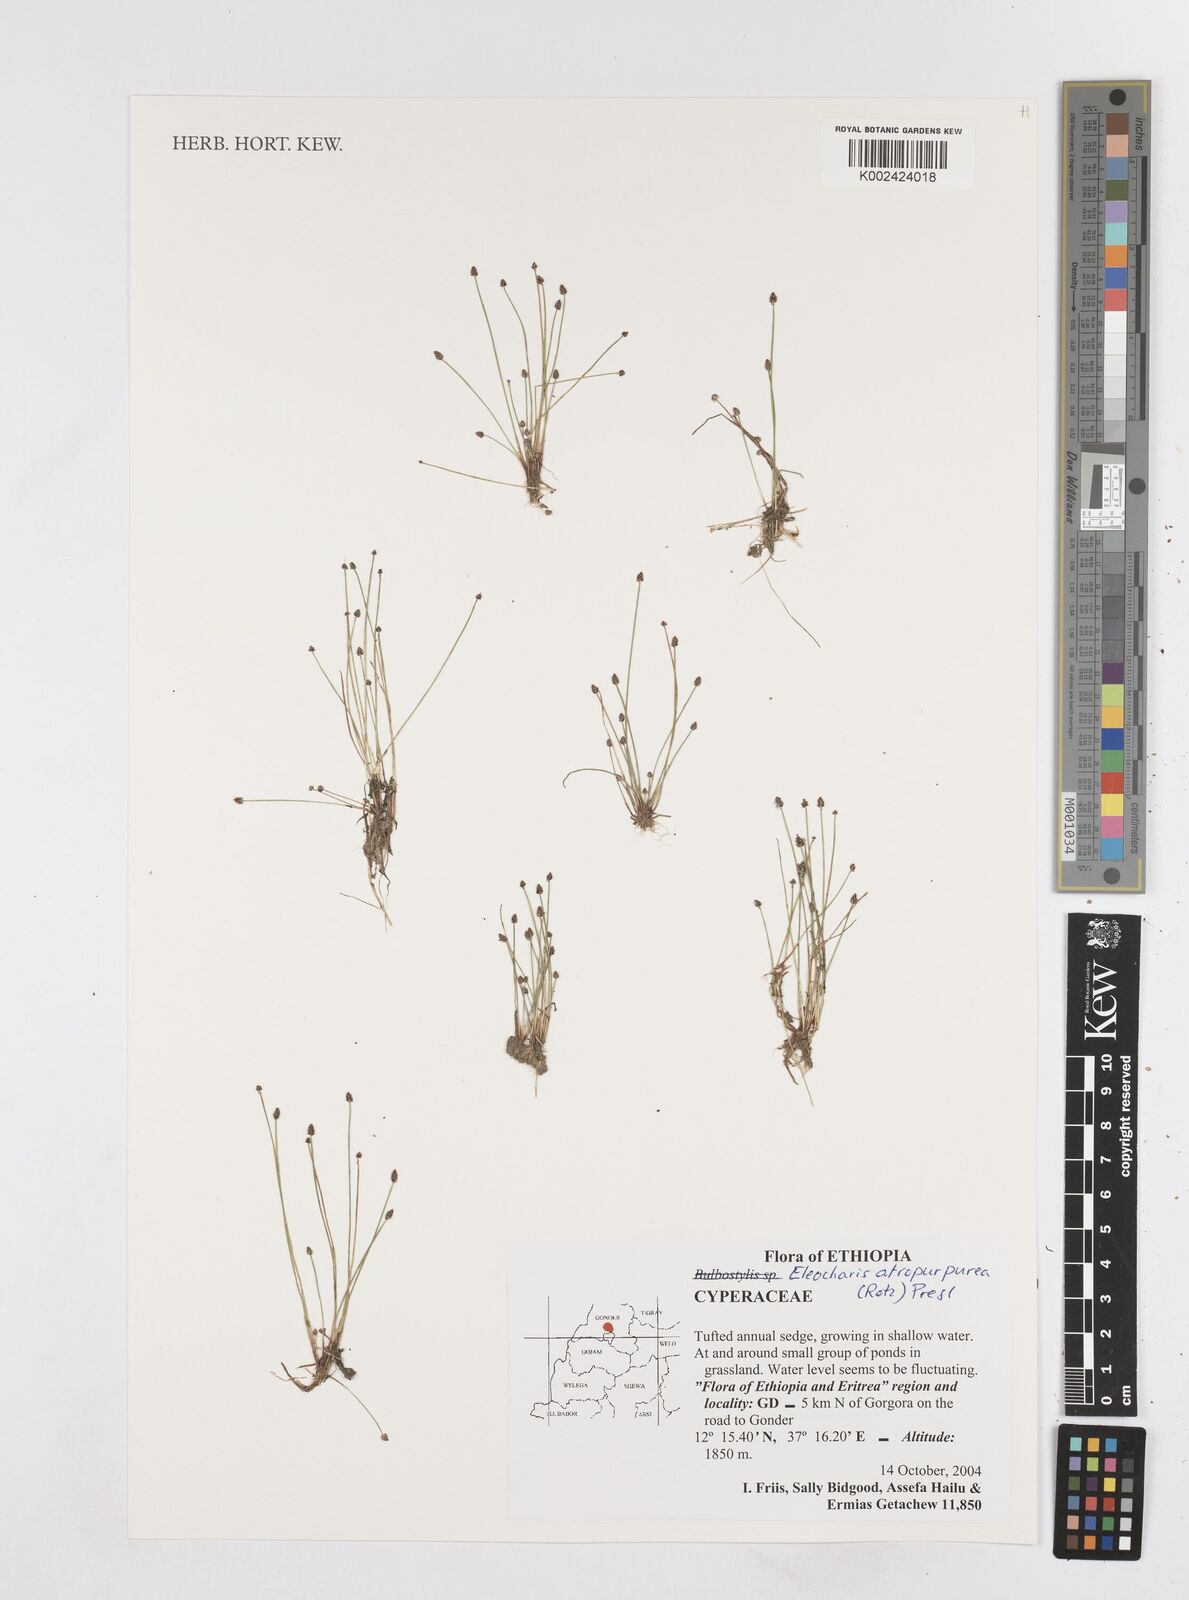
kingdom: Plantae
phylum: Tracheophyta
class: Liliopsida
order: Poales
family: Cyperaceae
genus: Eleocharis
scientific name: Eleocharis atropurpurea
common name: Purple spikerush
